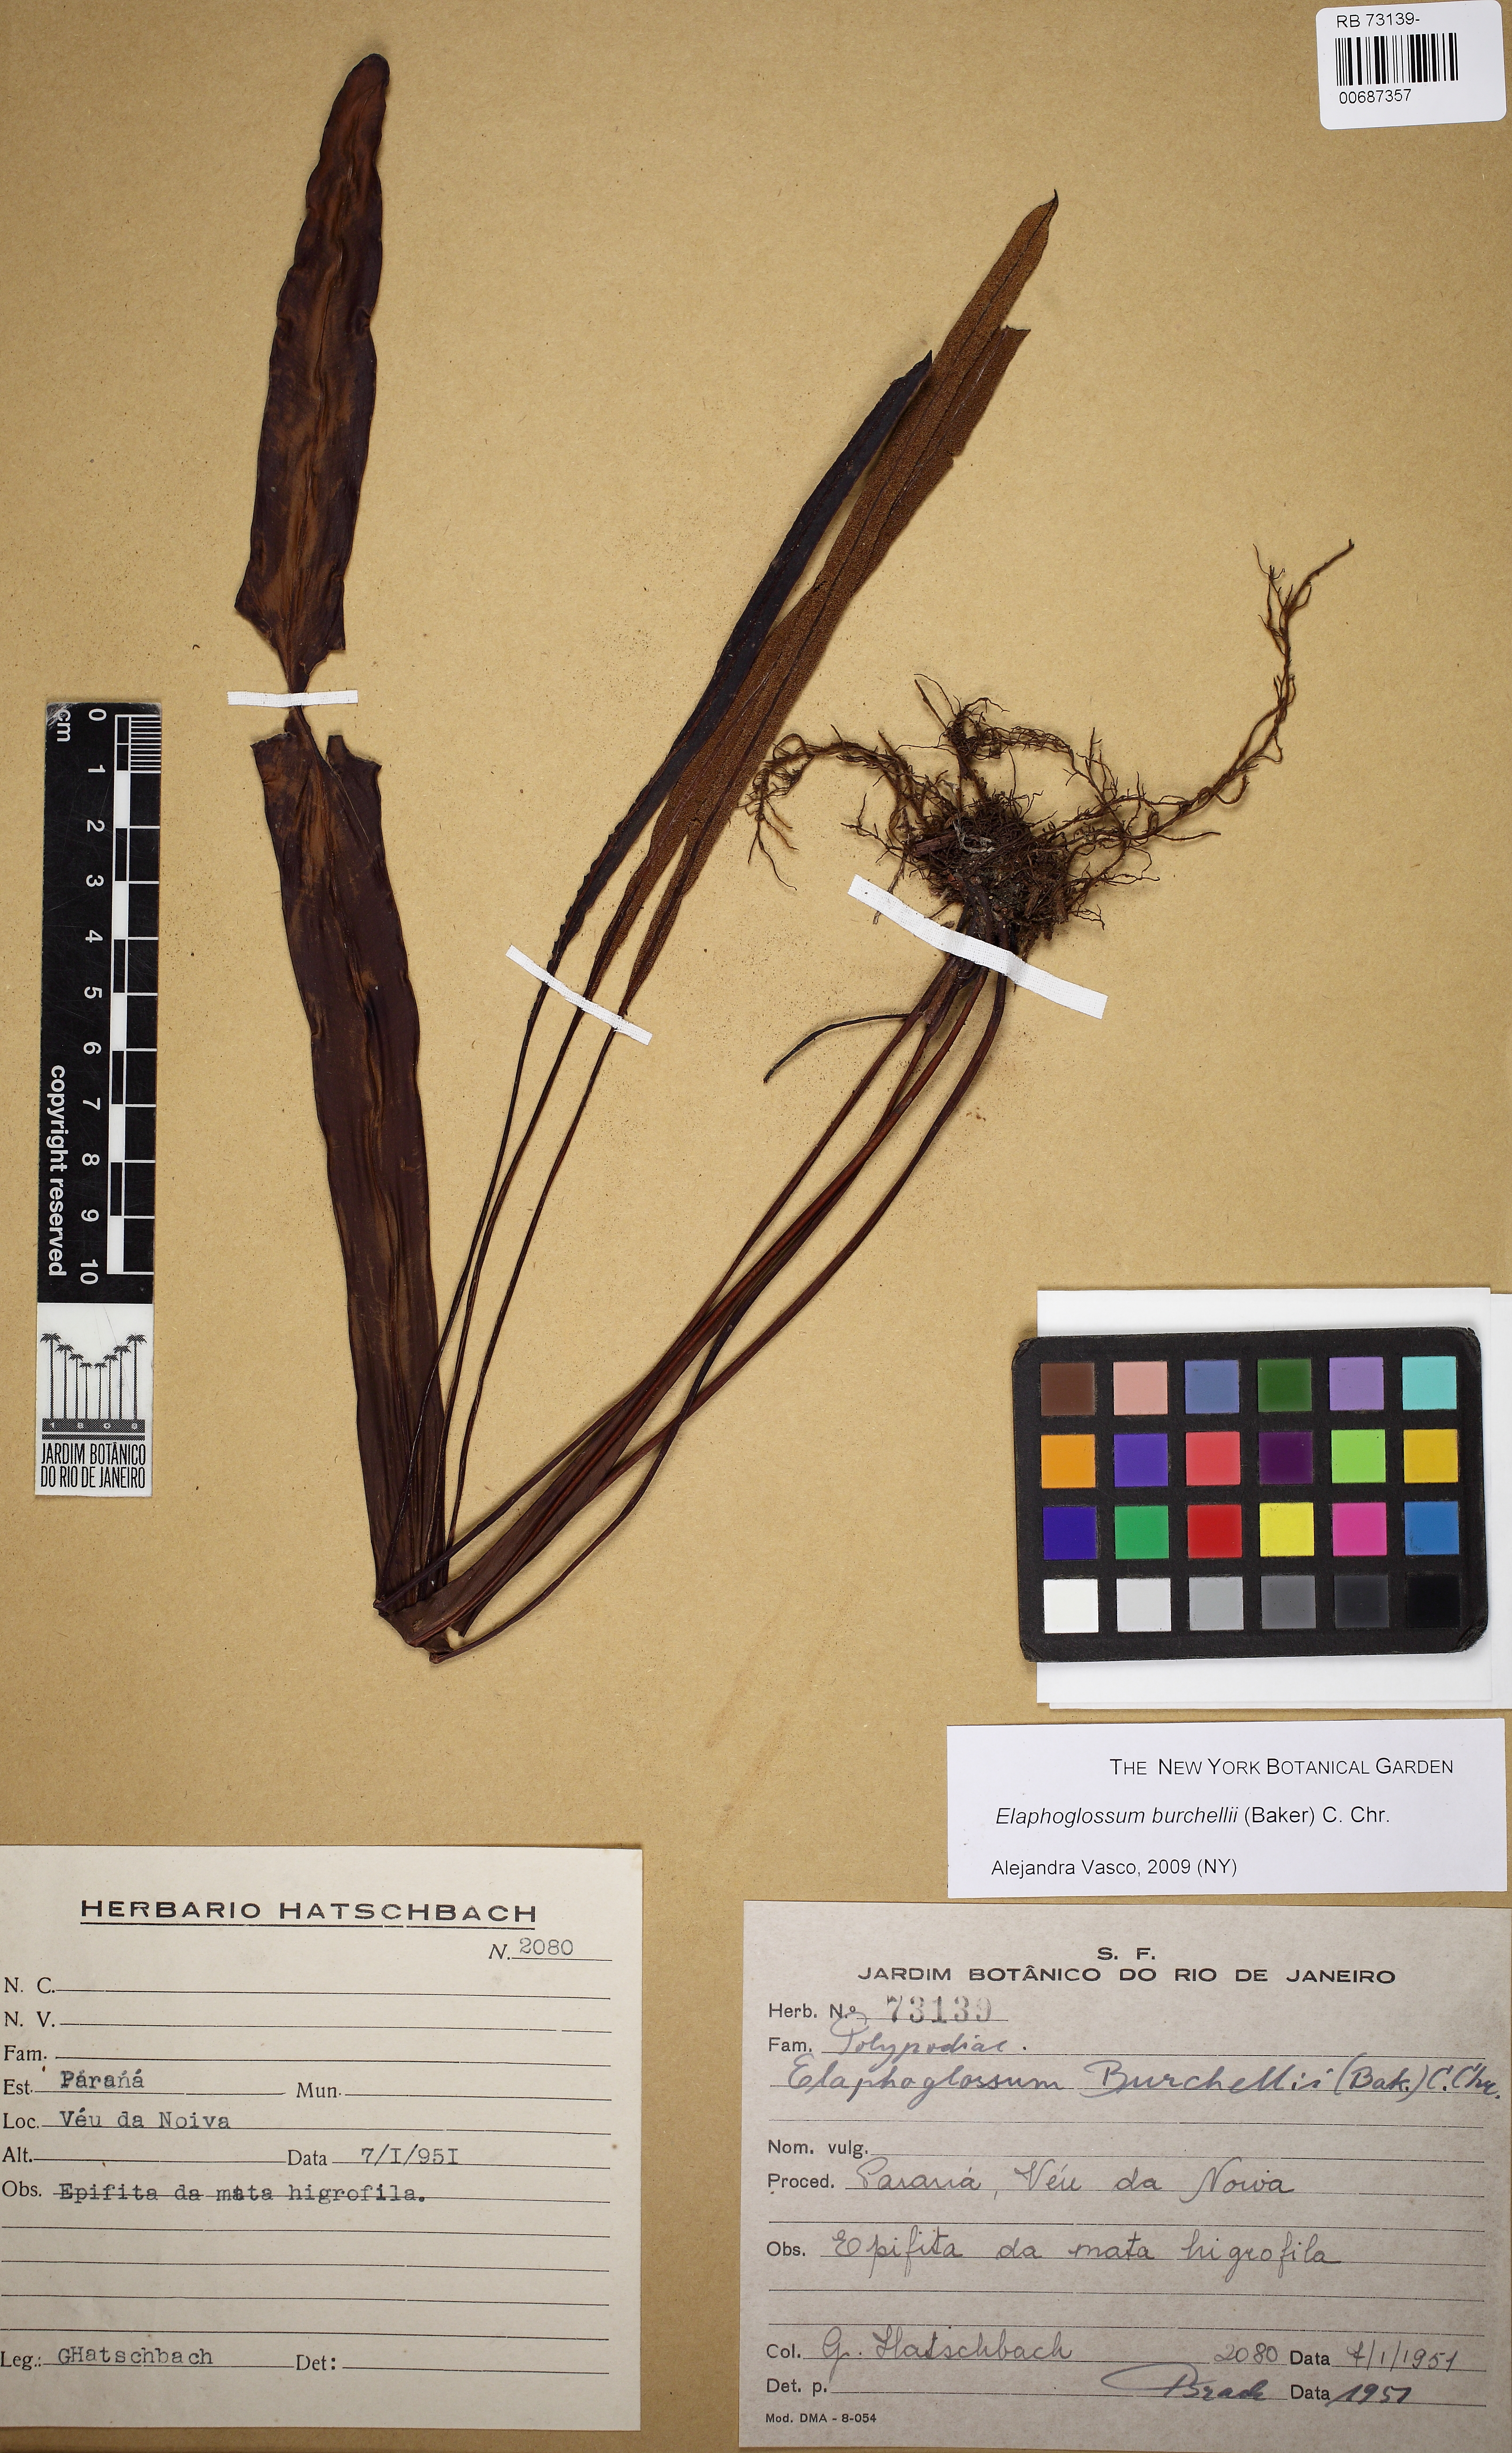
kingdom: Plantae
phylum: Tracheophyta
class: Polypodiopsida
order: Polypodiales
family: Dryopteridaceae
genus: Elaphoglossum
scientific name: Elaphoglossum burchellii
